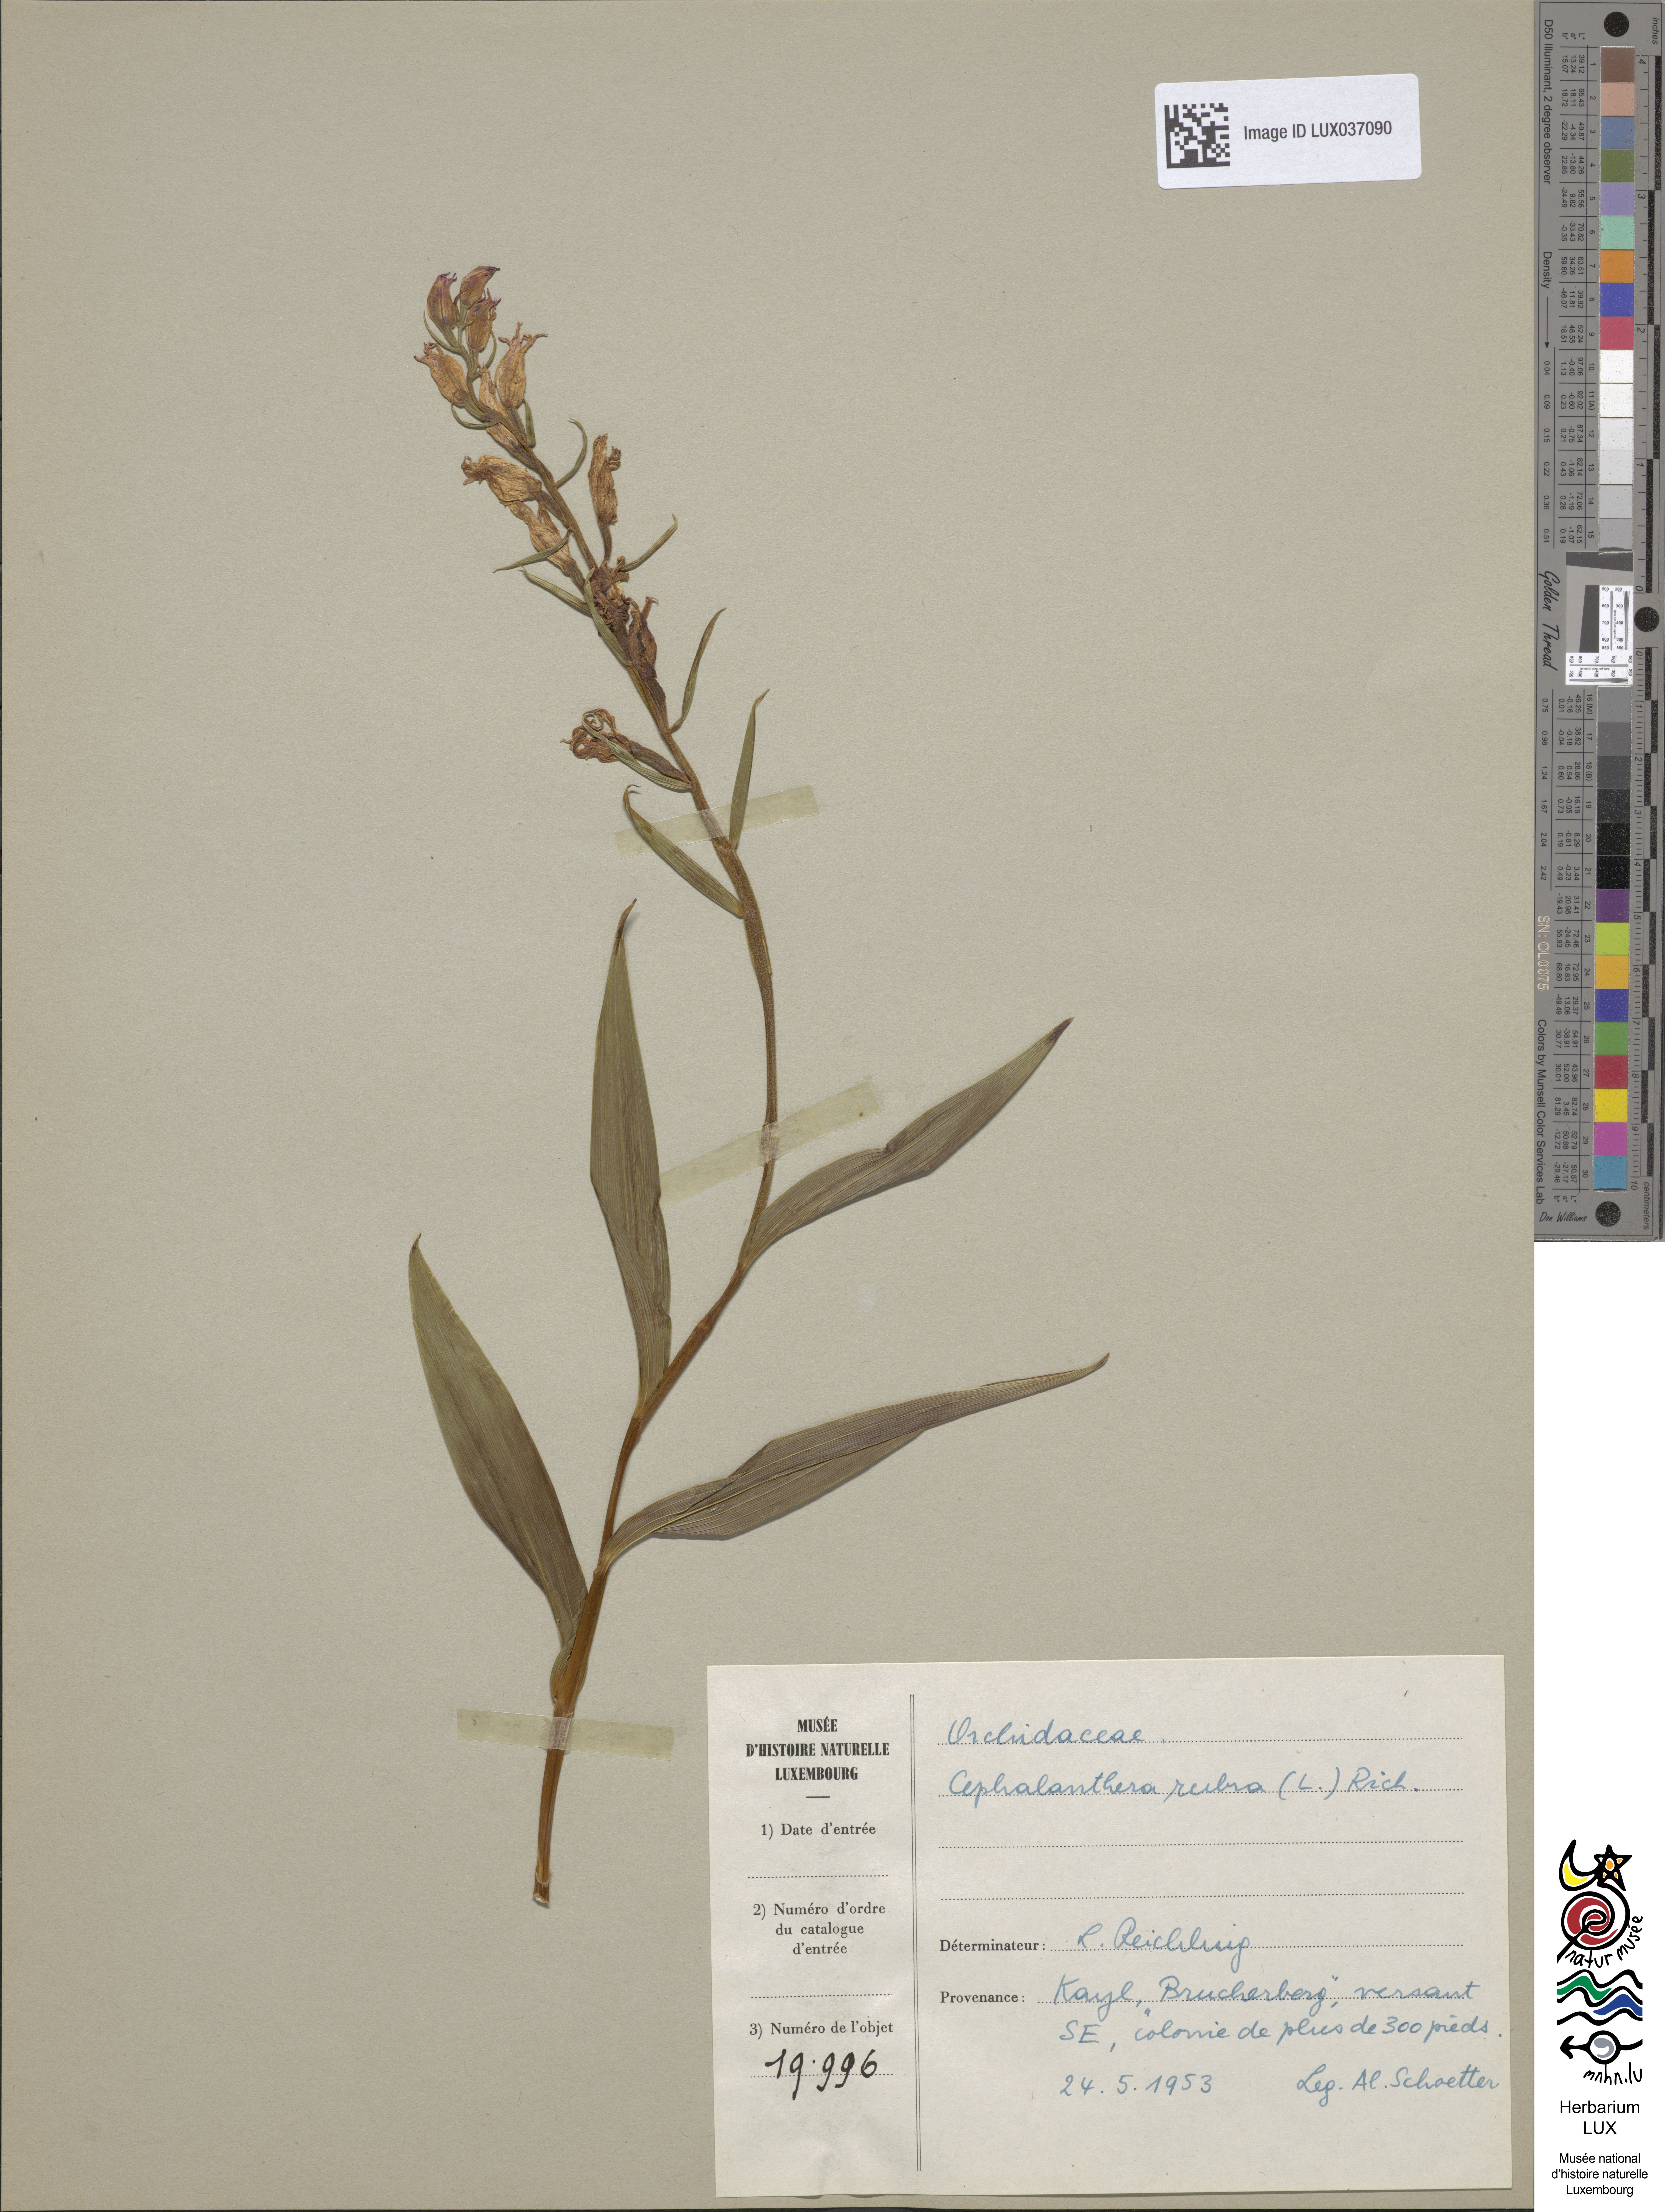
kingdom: Plantae
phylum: Tracheophyta
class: Liliopsida
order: Asparagales
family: Orchidaceae
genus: Cephalanthera
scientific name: Cephalanthera rubra
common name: Red helleborine
